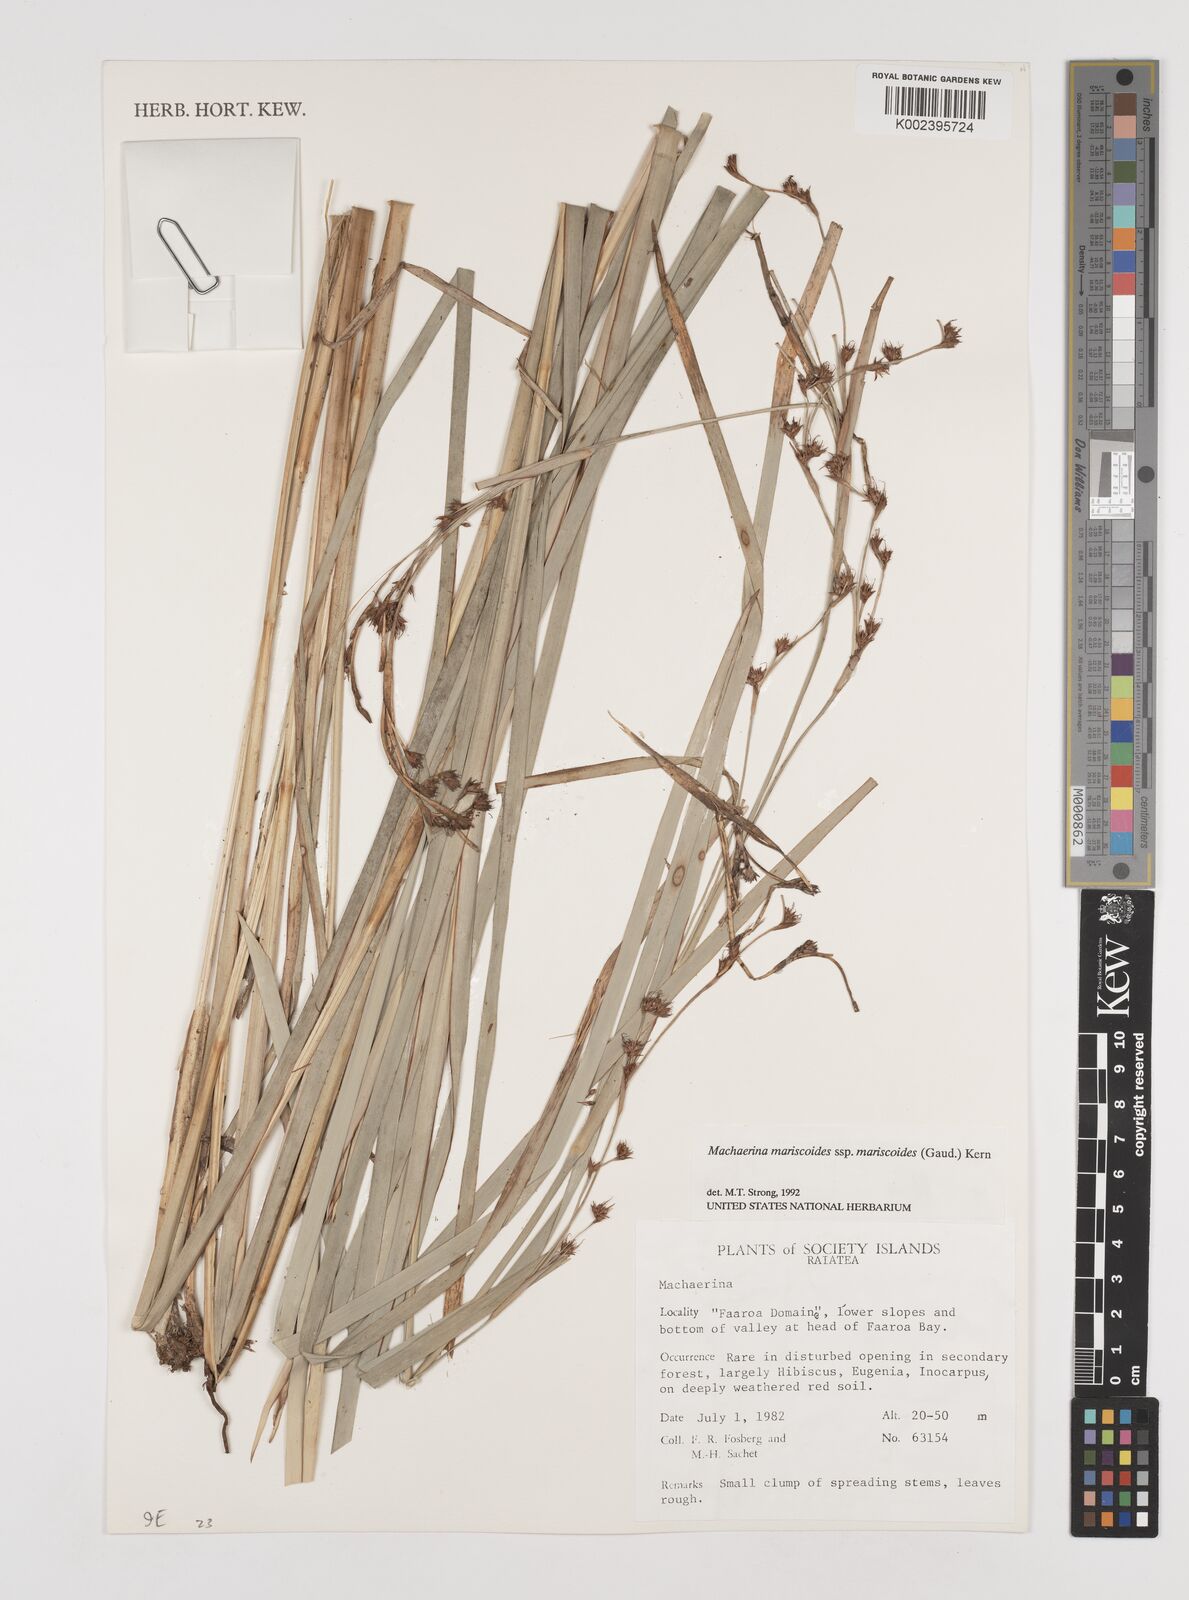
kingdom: Plantae
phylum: Tracheophyta
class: Liliopsida
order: Poales
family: Cyperaceae
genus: Machaerina
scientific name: Machaerina mariscoides
